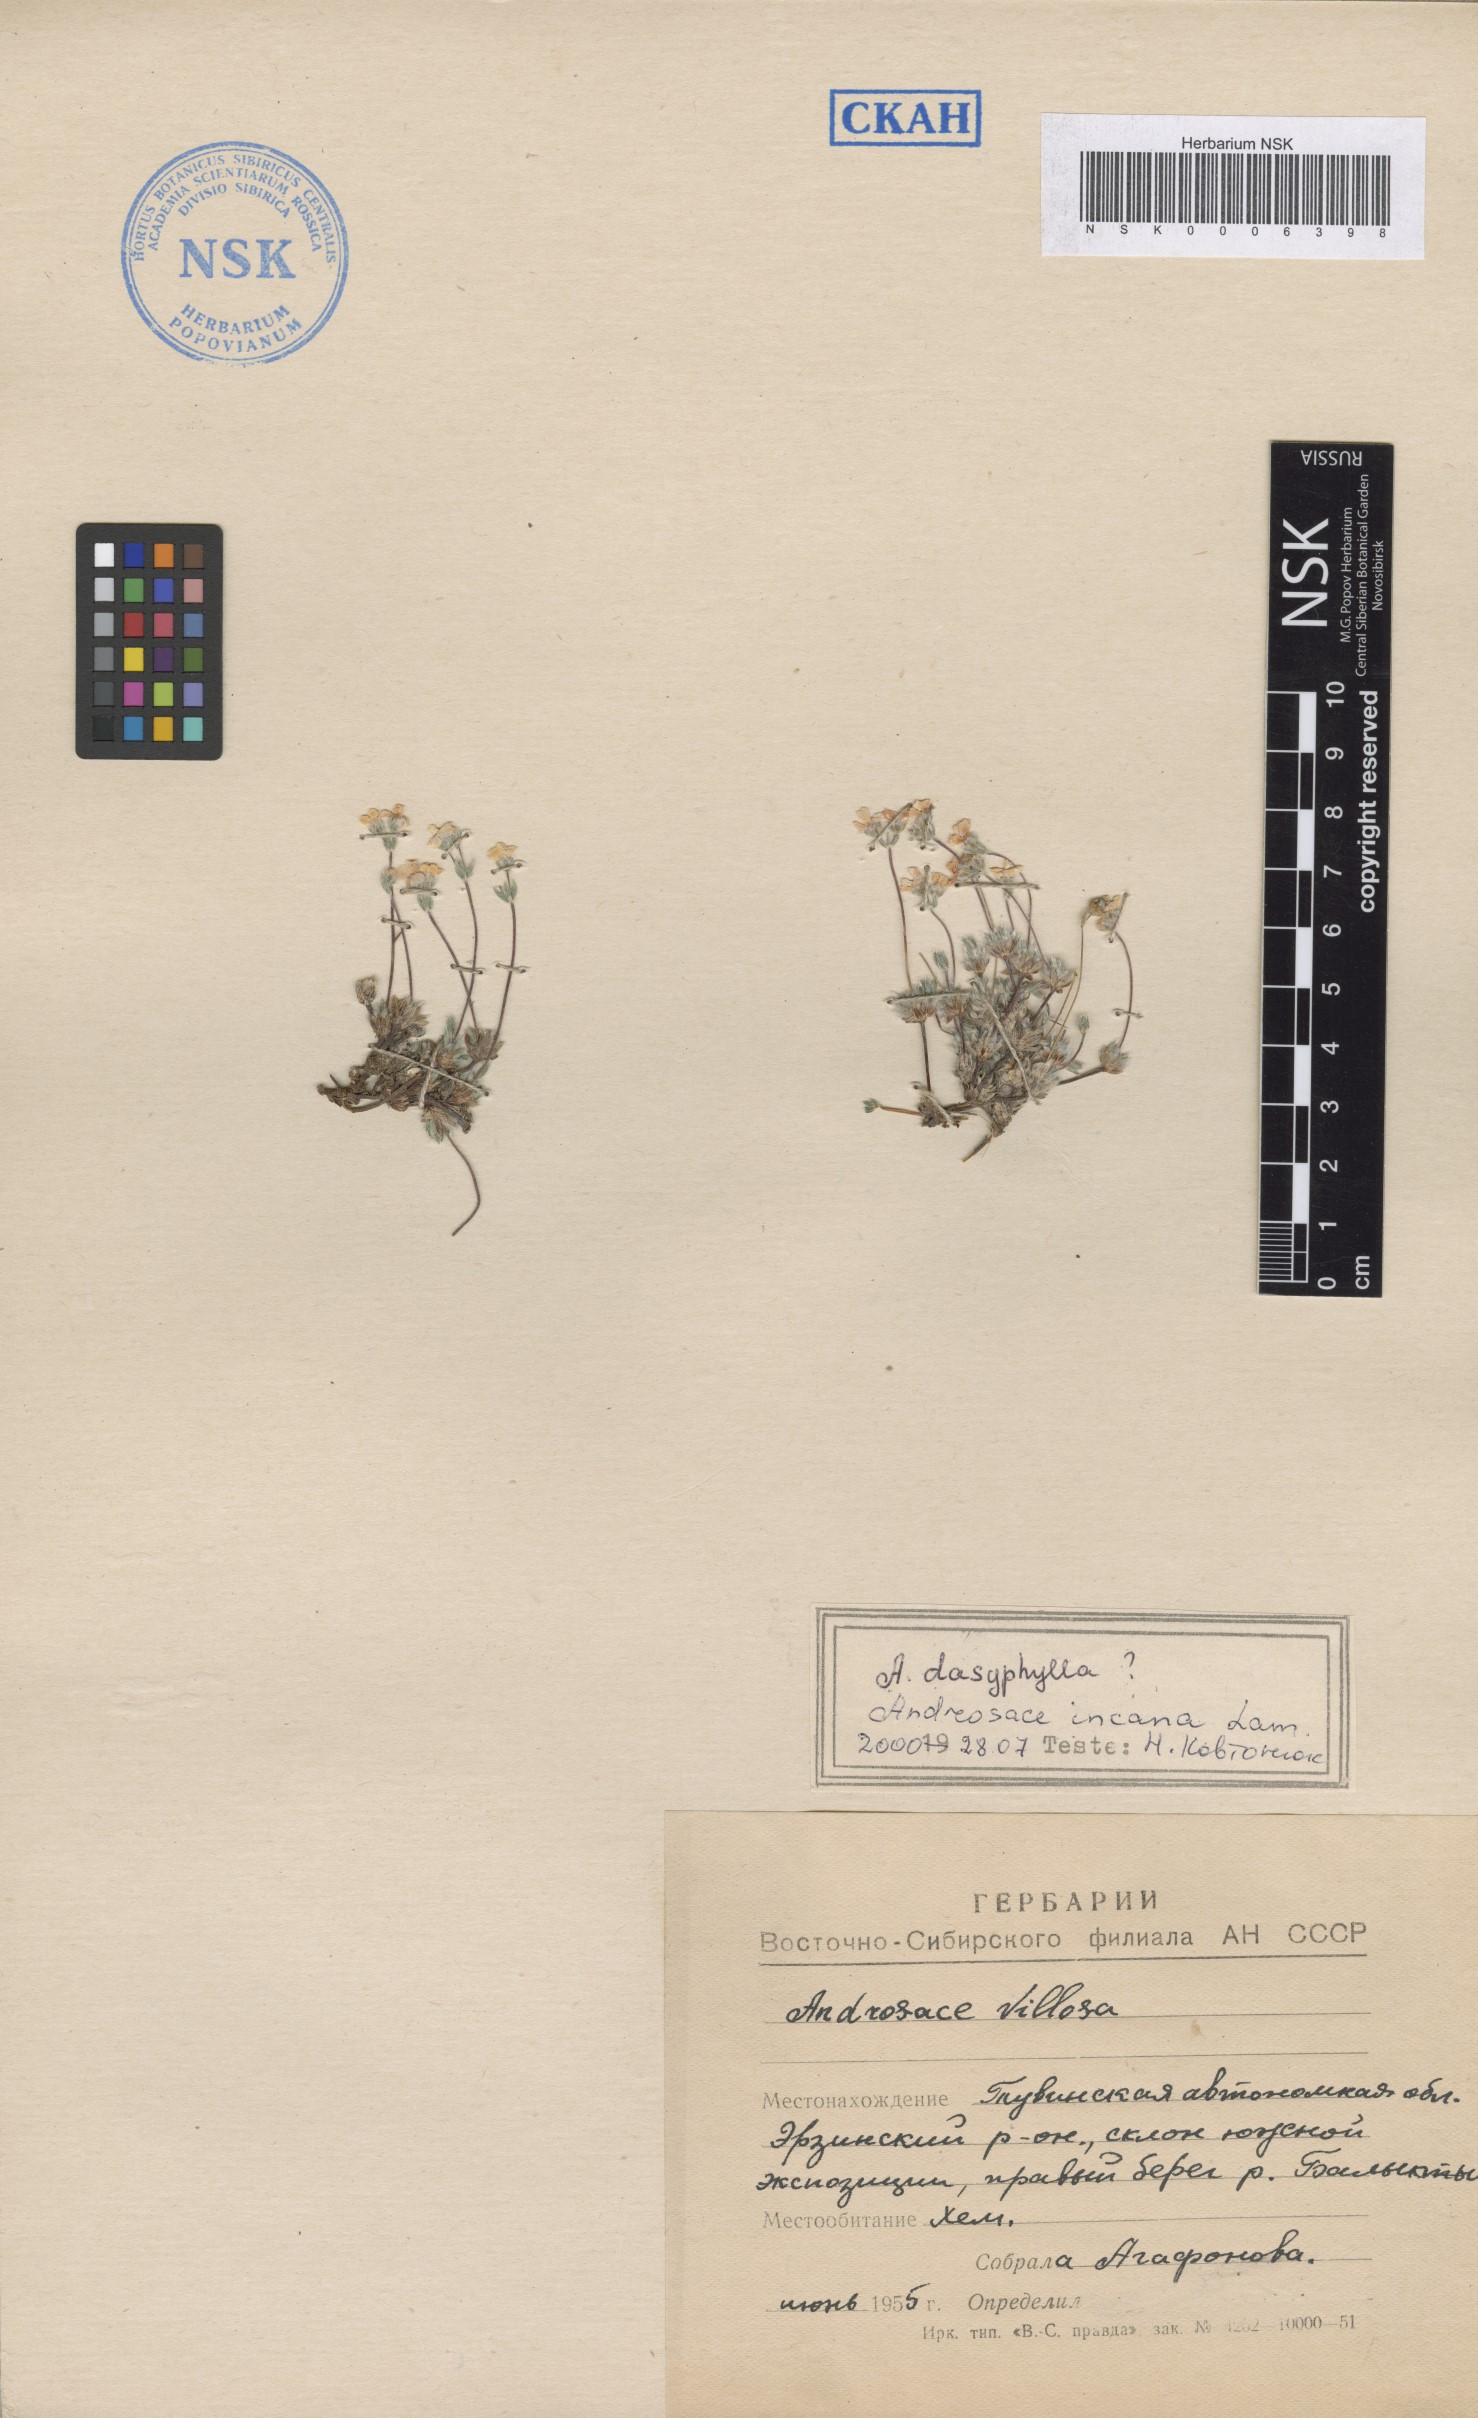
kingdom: Plantae
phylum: Tracheophyta
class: Magnoliopsida
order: Ericales
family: Primulaceae
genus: Androsace
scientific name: Androsace incana
